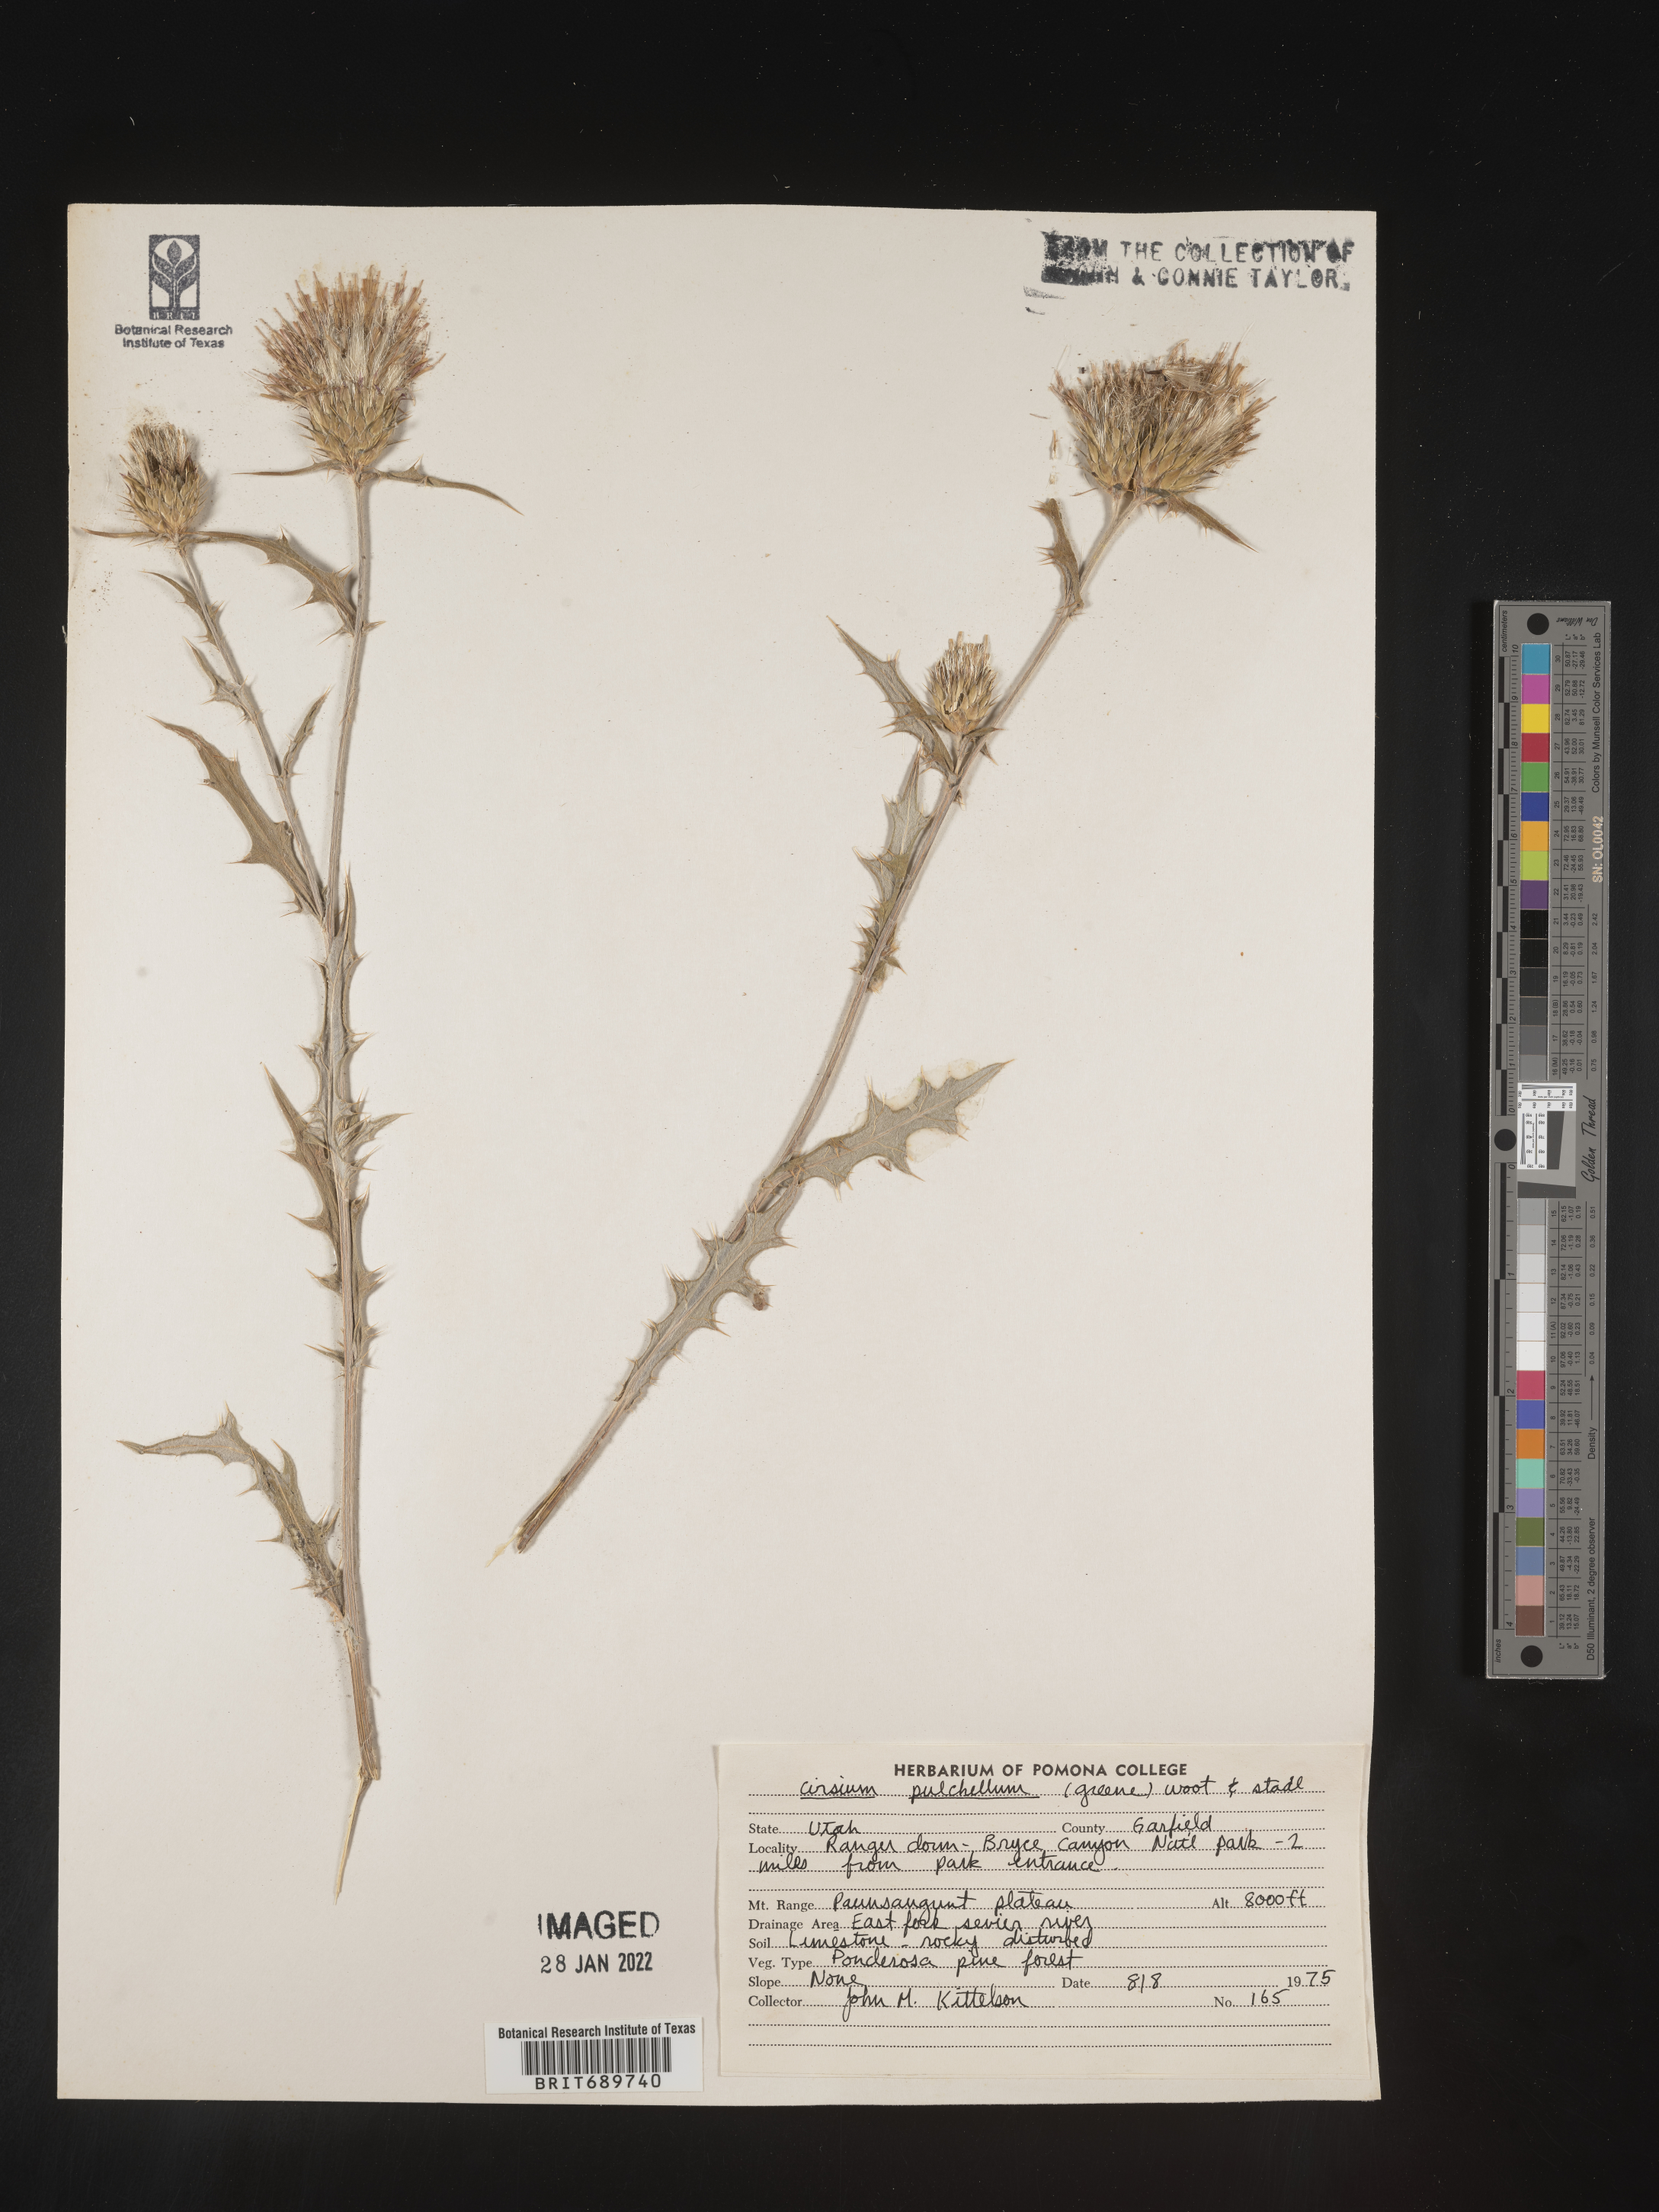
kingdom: Plantae
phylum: Tracheophyta
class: Magnoliopsida
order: Asterales
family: Asteraceae
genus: Cirsium
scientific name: Cirsium occidentale
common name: Western thistle
